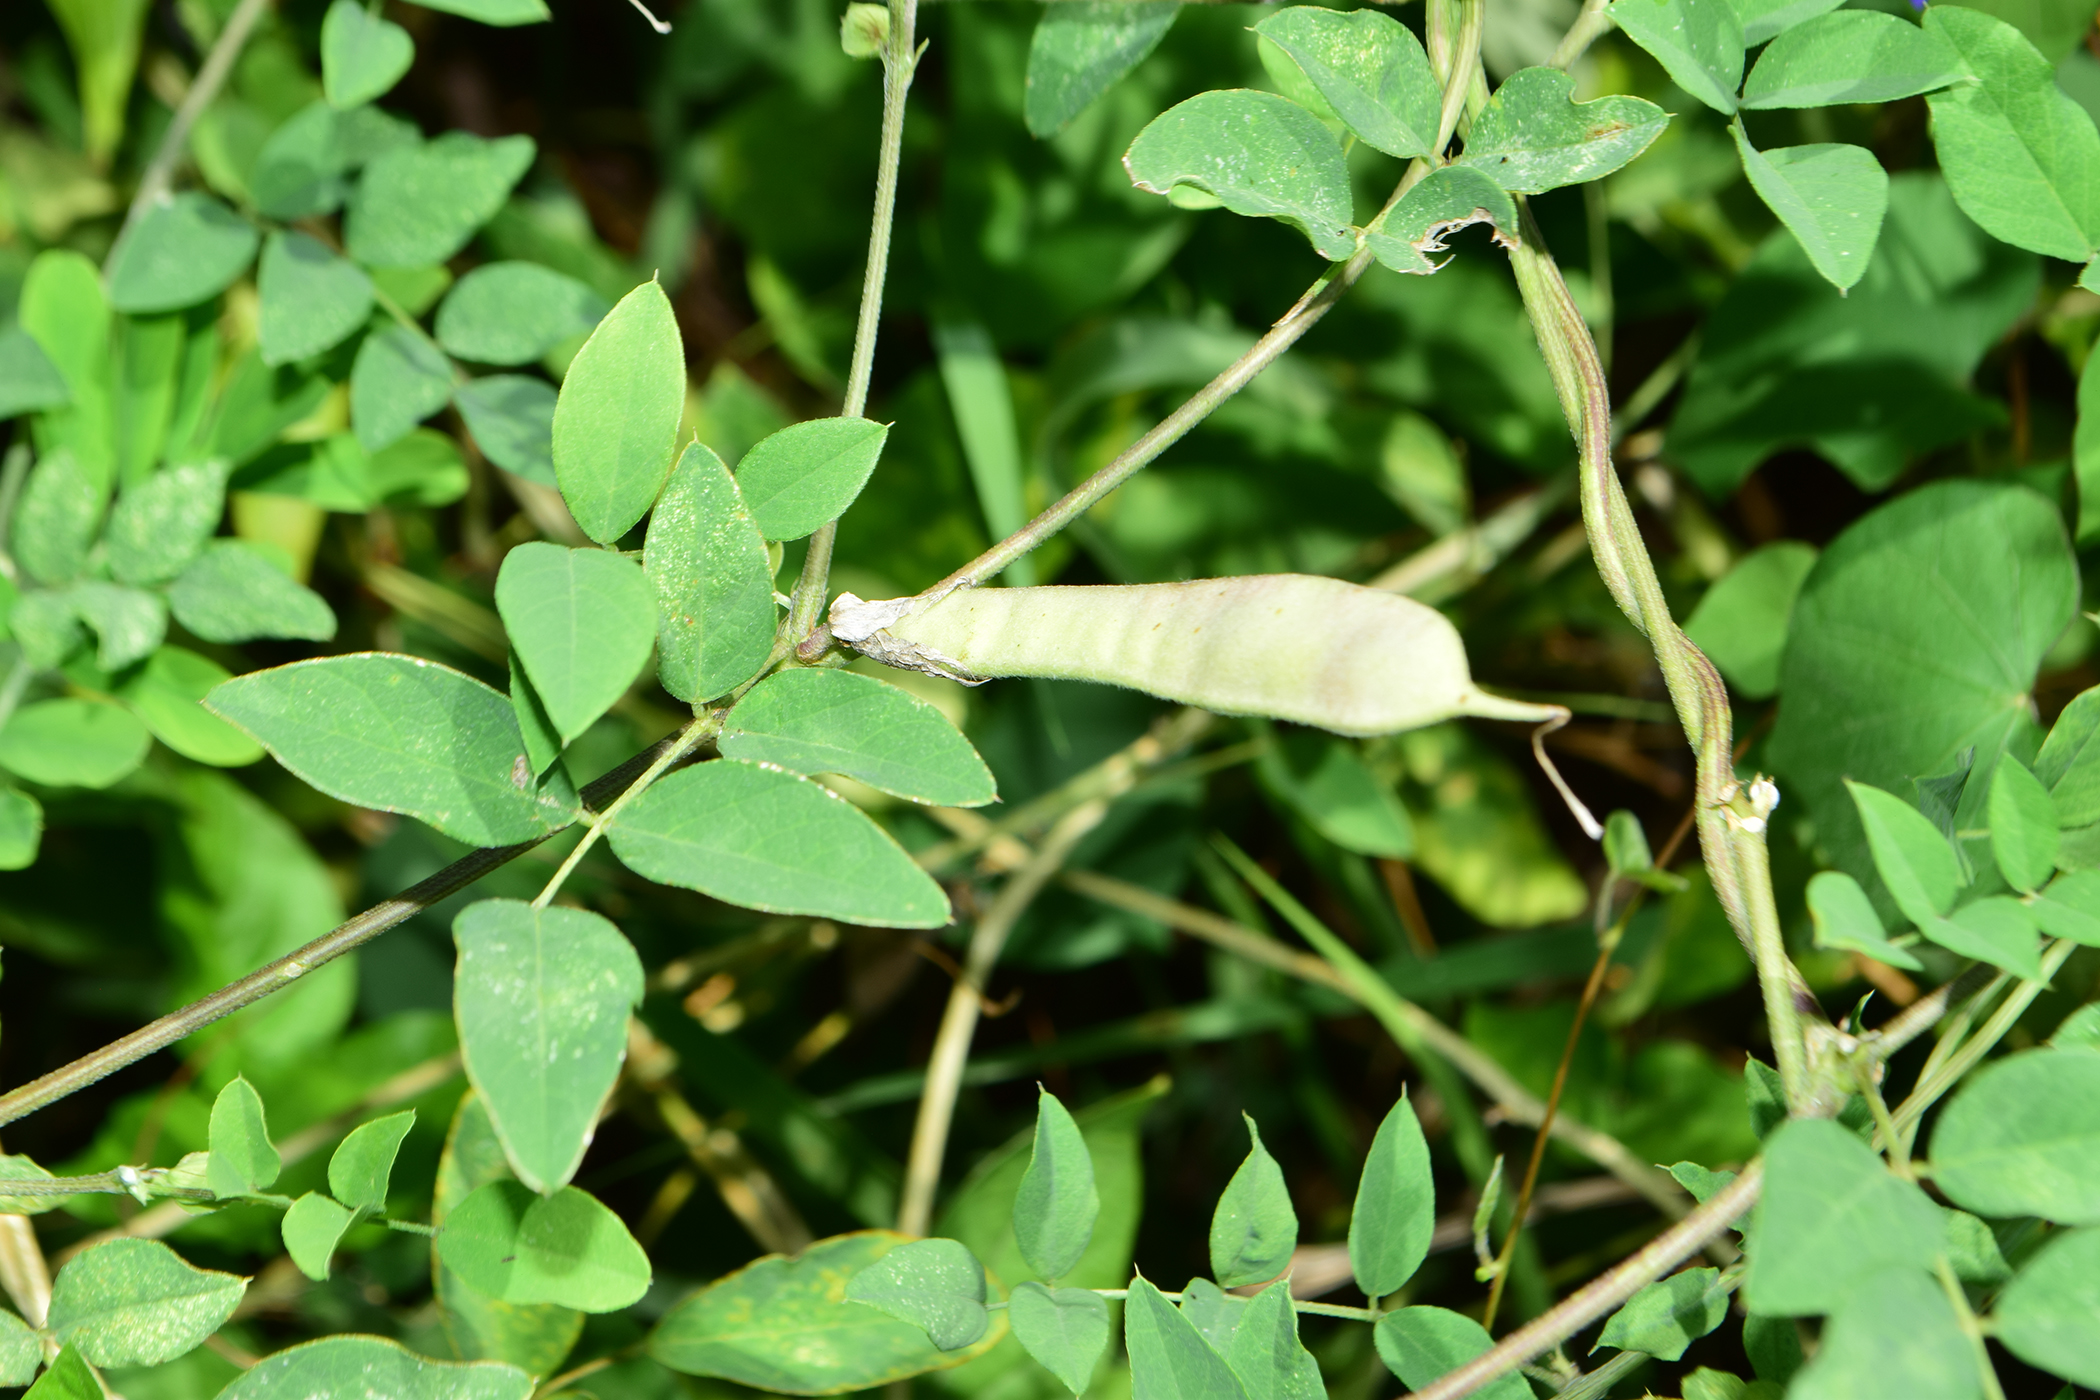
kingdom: Plantae
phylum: Tracheophyta
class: Magnoliopsida
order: Fabales
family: Fabaceae
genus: Clitoria
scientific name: Clitoria ternatea
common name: Asian pigeonwings
